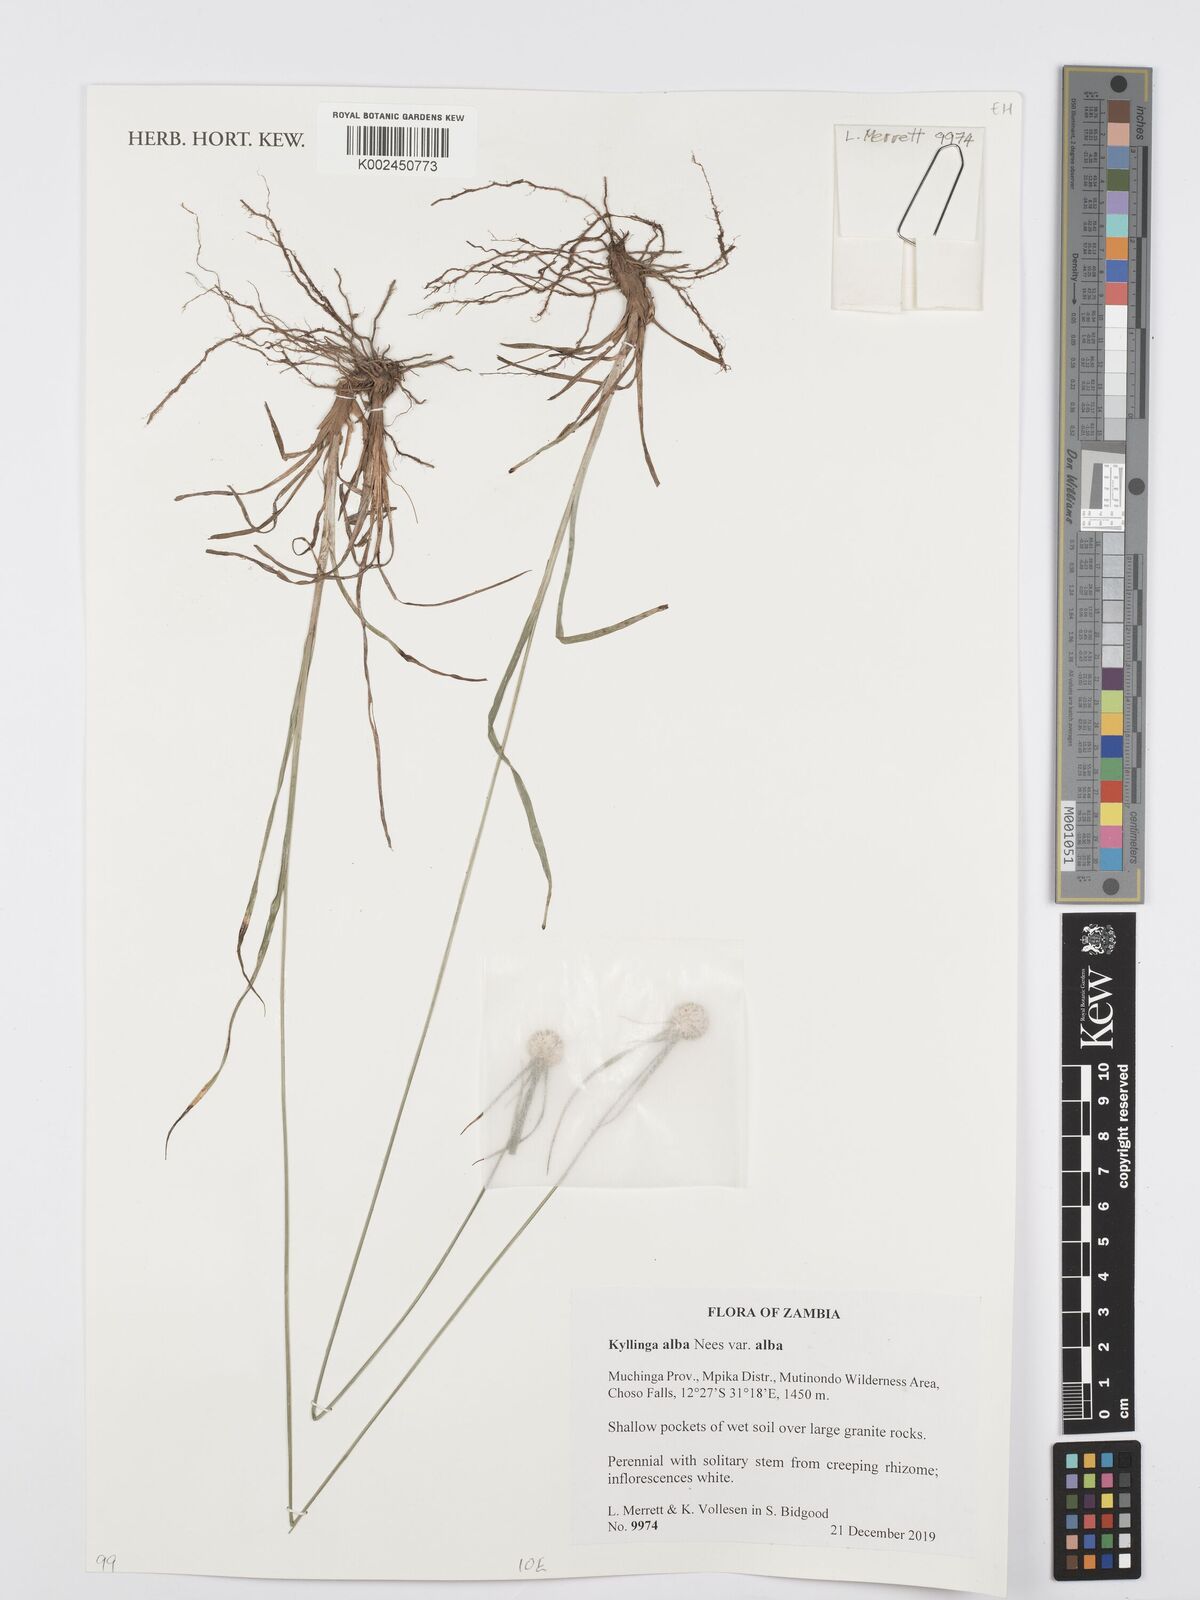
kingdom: Plantae
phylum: Tracheophyta
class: Liliopsida
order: Poales
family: Cyperaceae
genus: Cyperus
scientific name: Cyperus rukwanus
